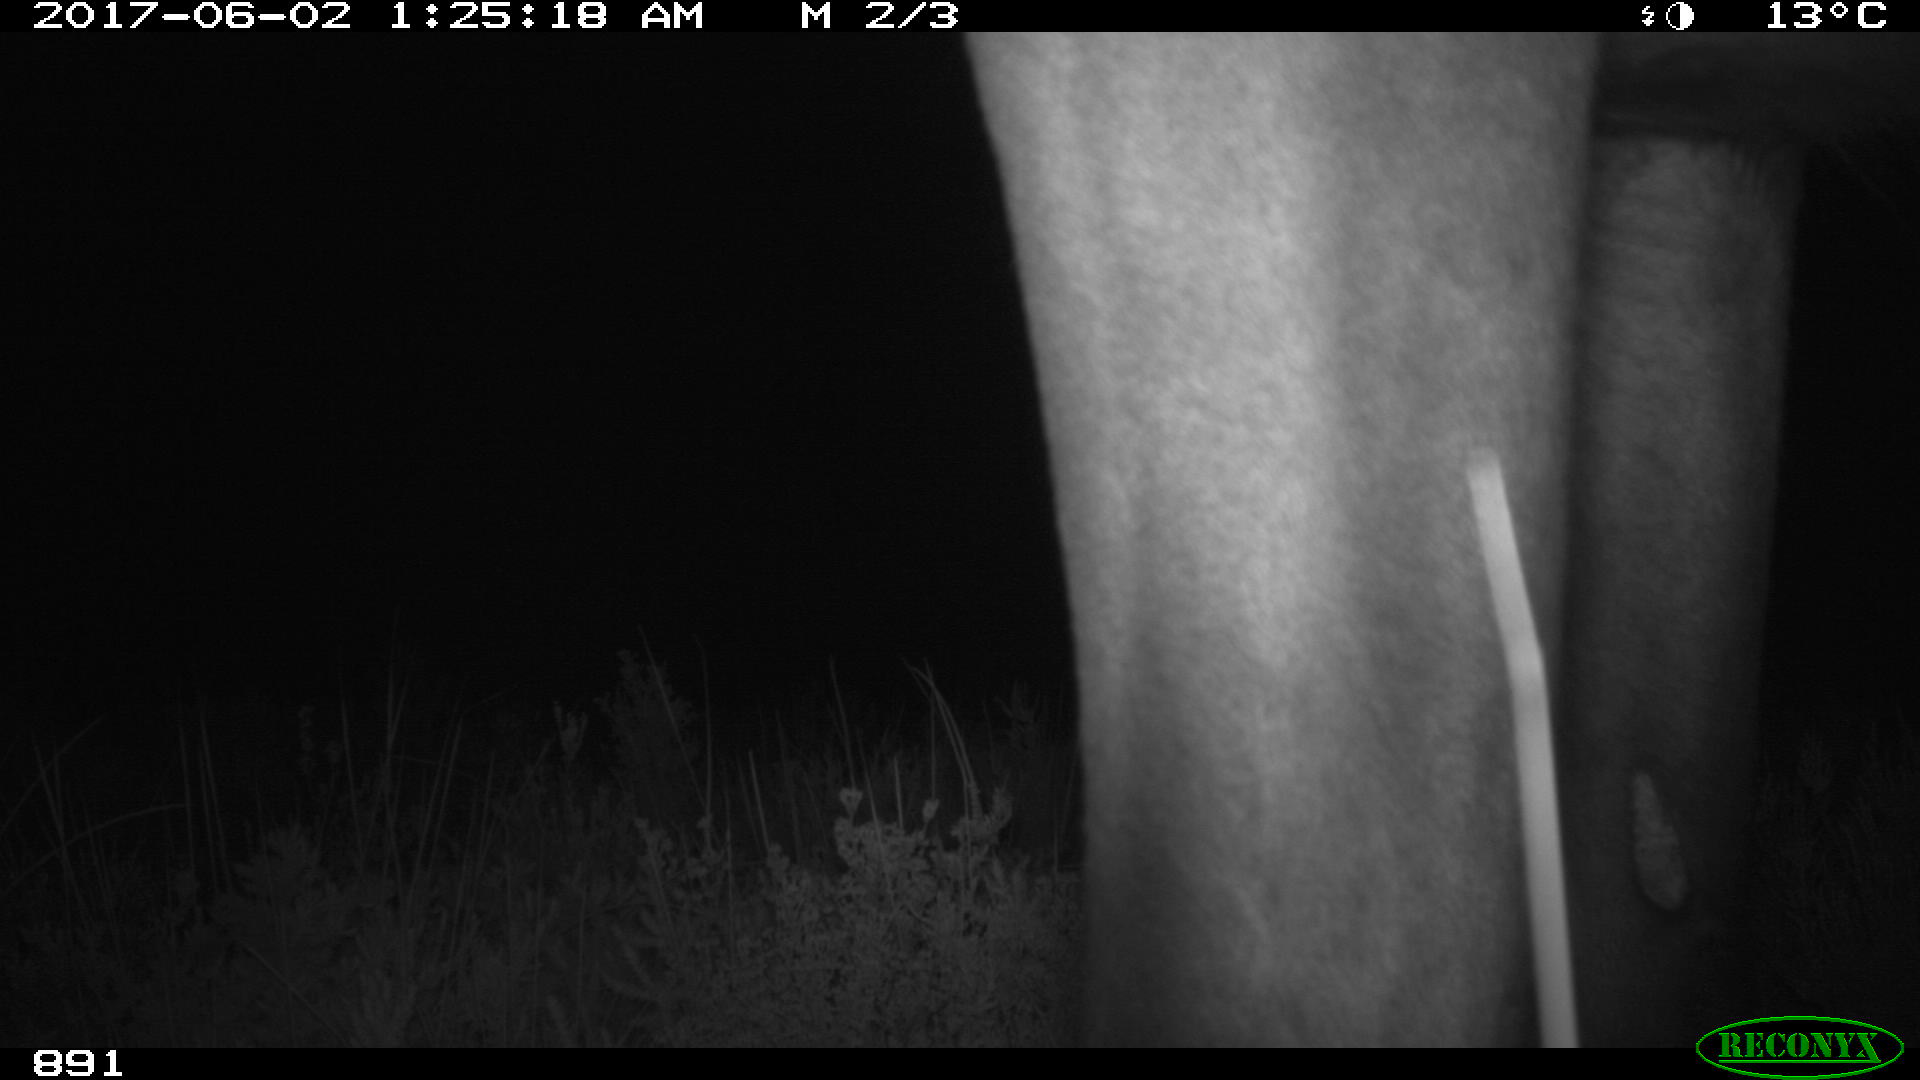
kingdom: Animalia
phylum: Chordata
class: Mammalia
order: Perissodactyla
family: Equidae
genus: Equus
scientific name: Equus caballus
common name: Horse
